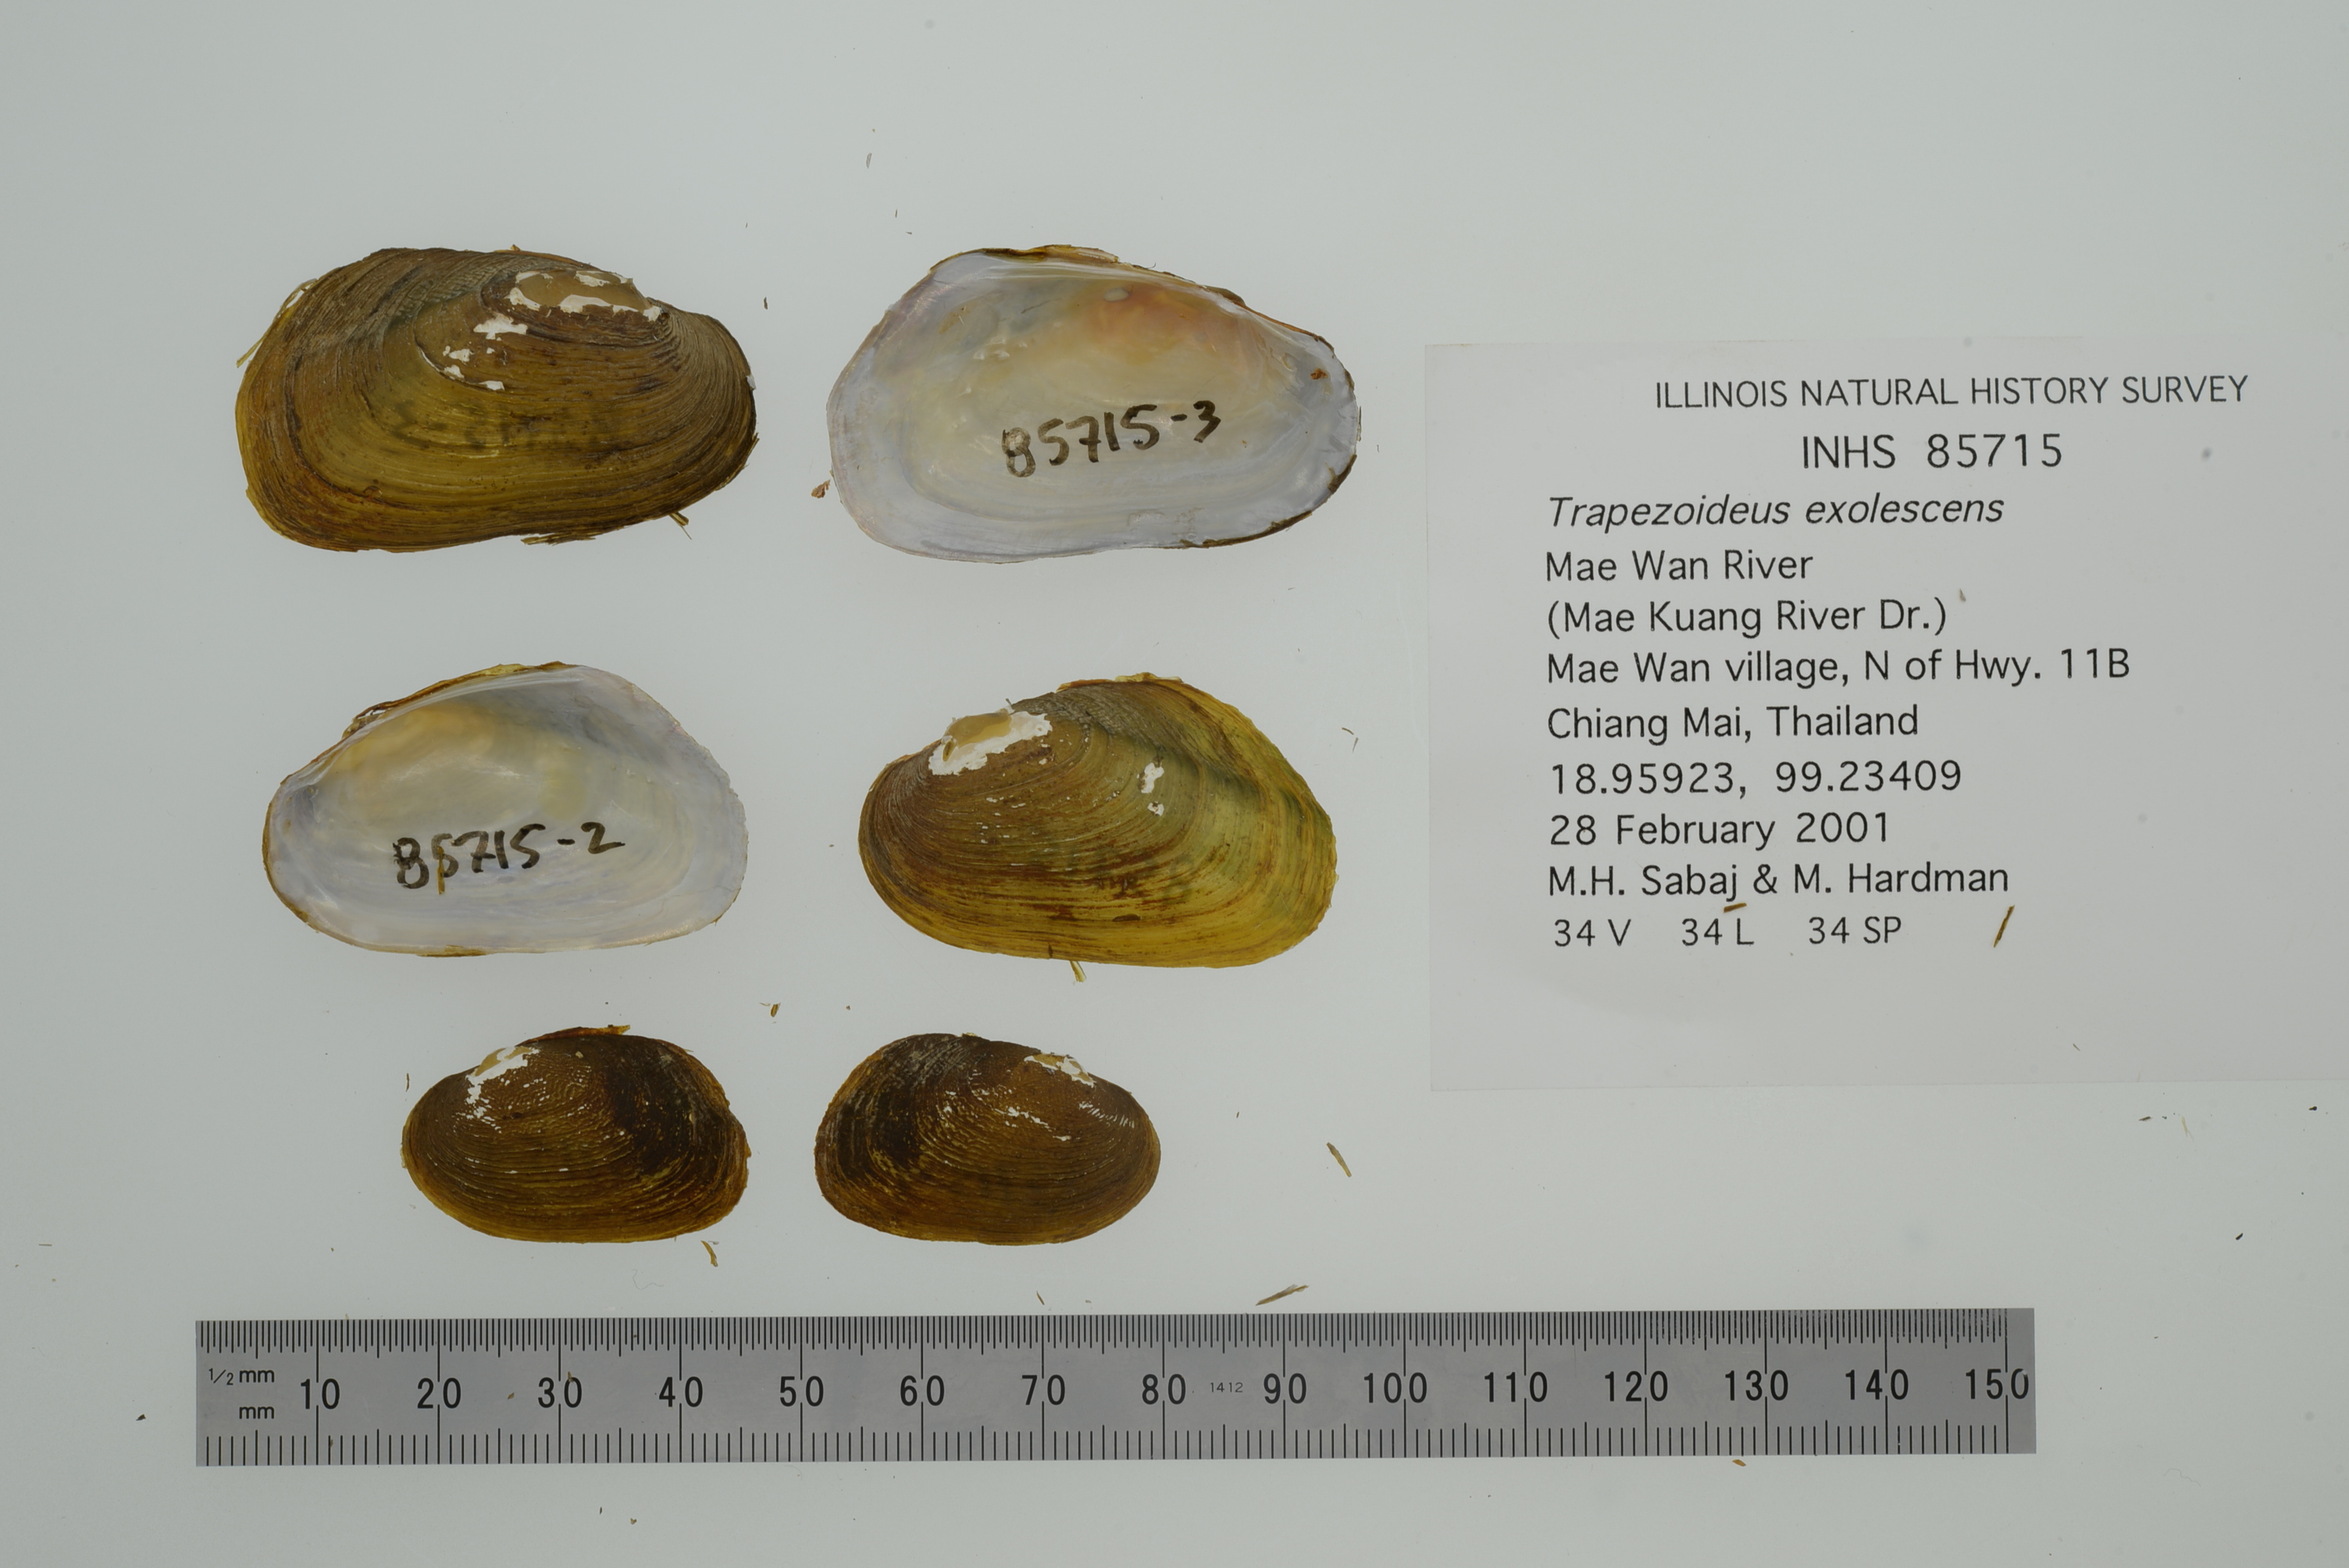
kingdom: Animalia
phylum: Mollusca
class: Bivalvia
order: Unionida
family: Unionidae
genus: Lens
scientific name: Lens
